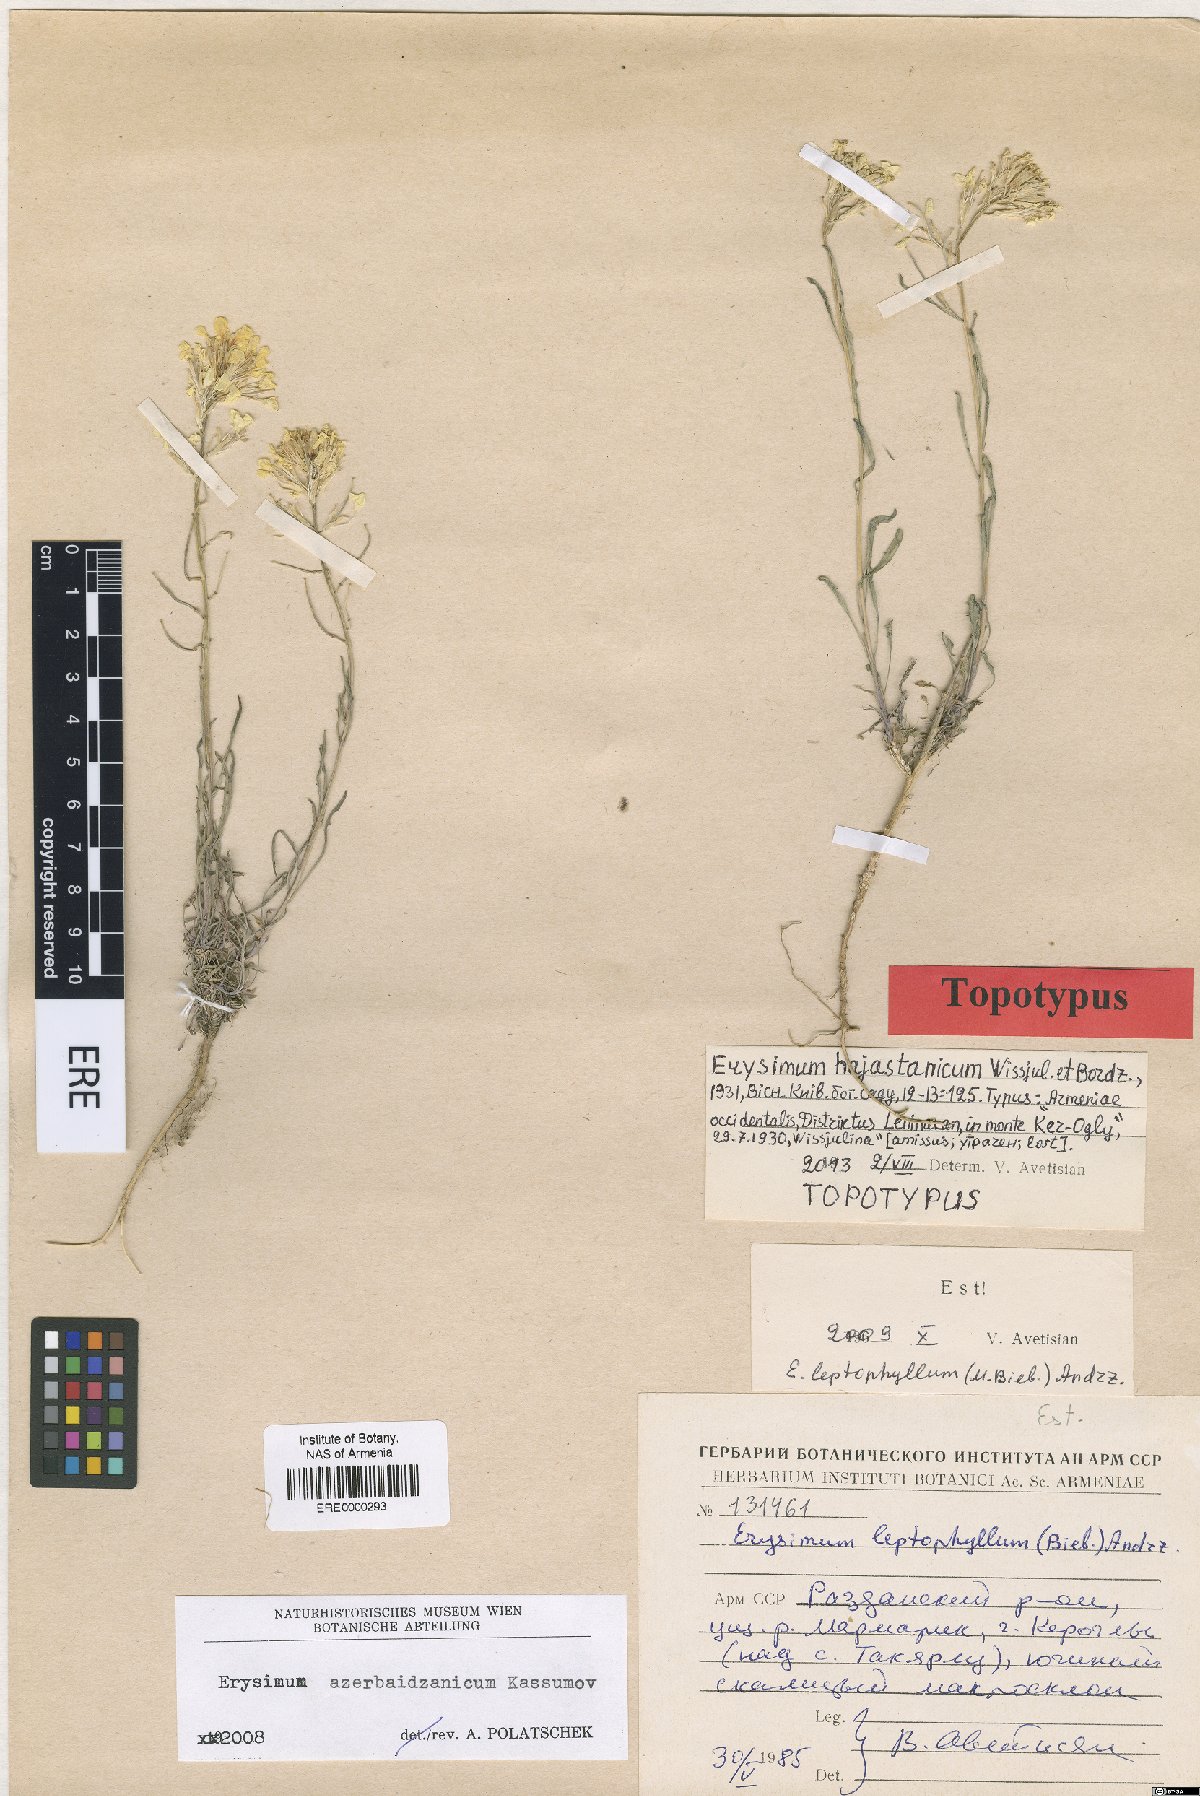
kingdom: Plantae
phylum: Tracheophyta
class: Magnoliopsida
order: Brassicales
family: Brassicaceae
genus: Erysimum
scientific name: Erysimum hajastanicum
